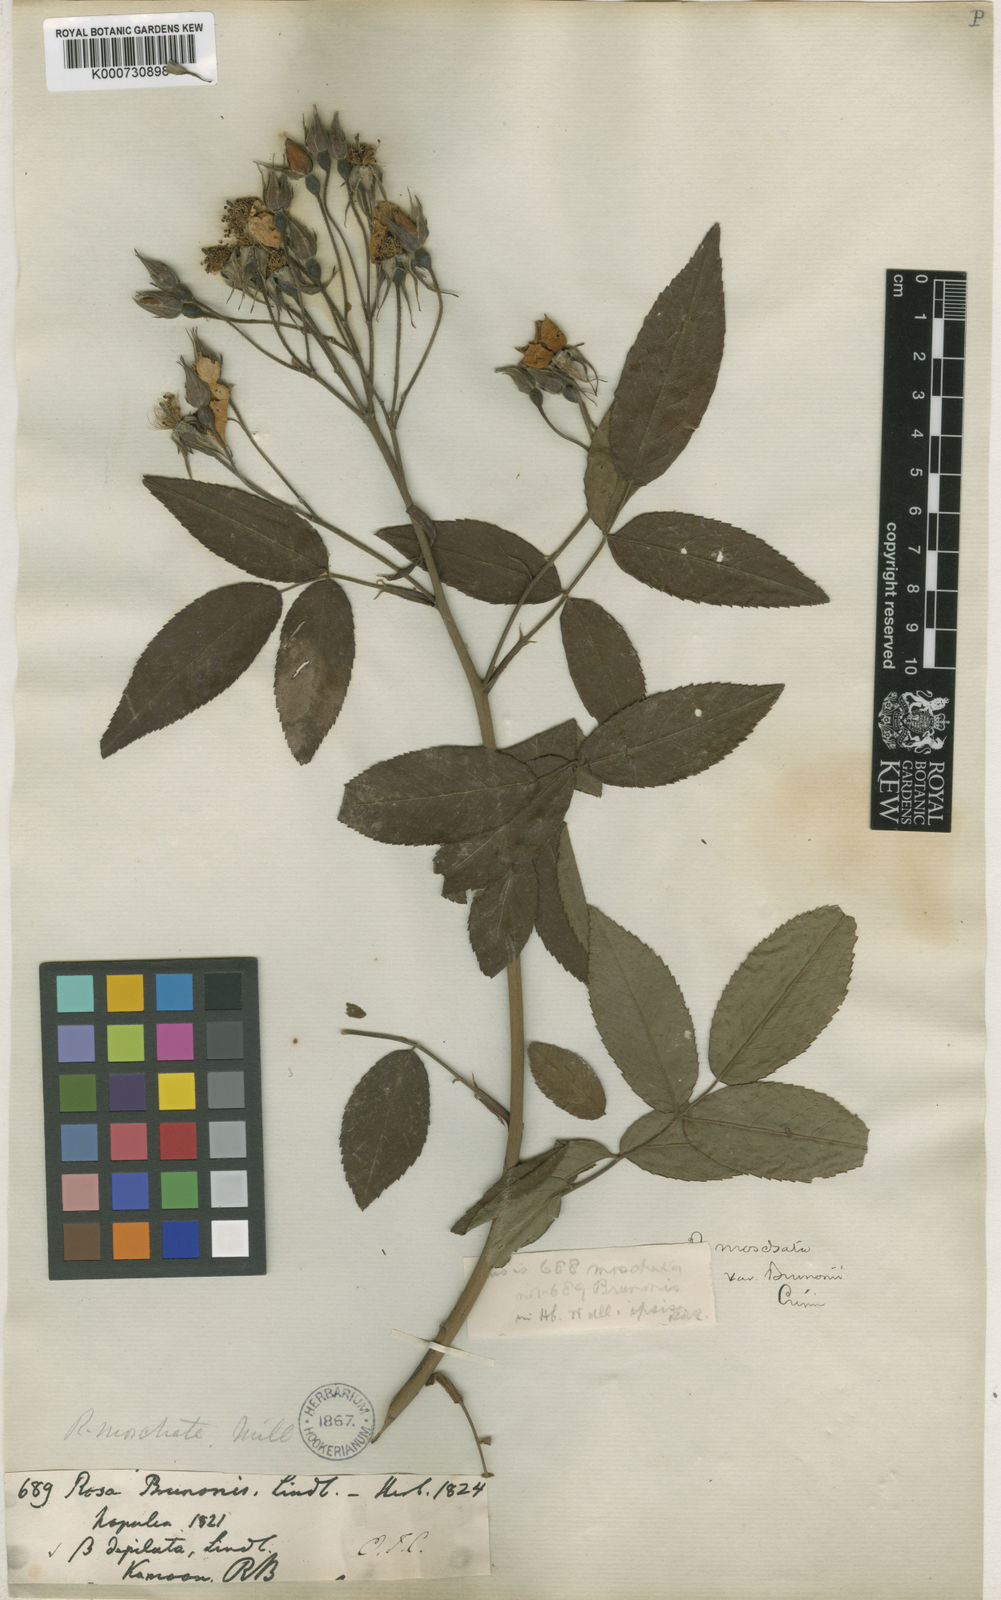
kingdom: Plantae
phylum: Tracheophyta
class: Magnoliopsida
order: Rosales
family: Rosaceae
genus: Rosa
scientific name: Rosa moschata
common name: Musk rose
